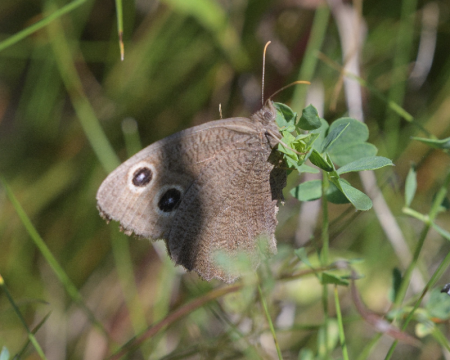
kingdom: Animalia
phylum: Arthropoda
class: Insecta
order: Lepidoptera
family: Nymphalidae
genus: Cercyonis
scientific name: Cercyonis pegala
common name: Common Wood-Nymph
